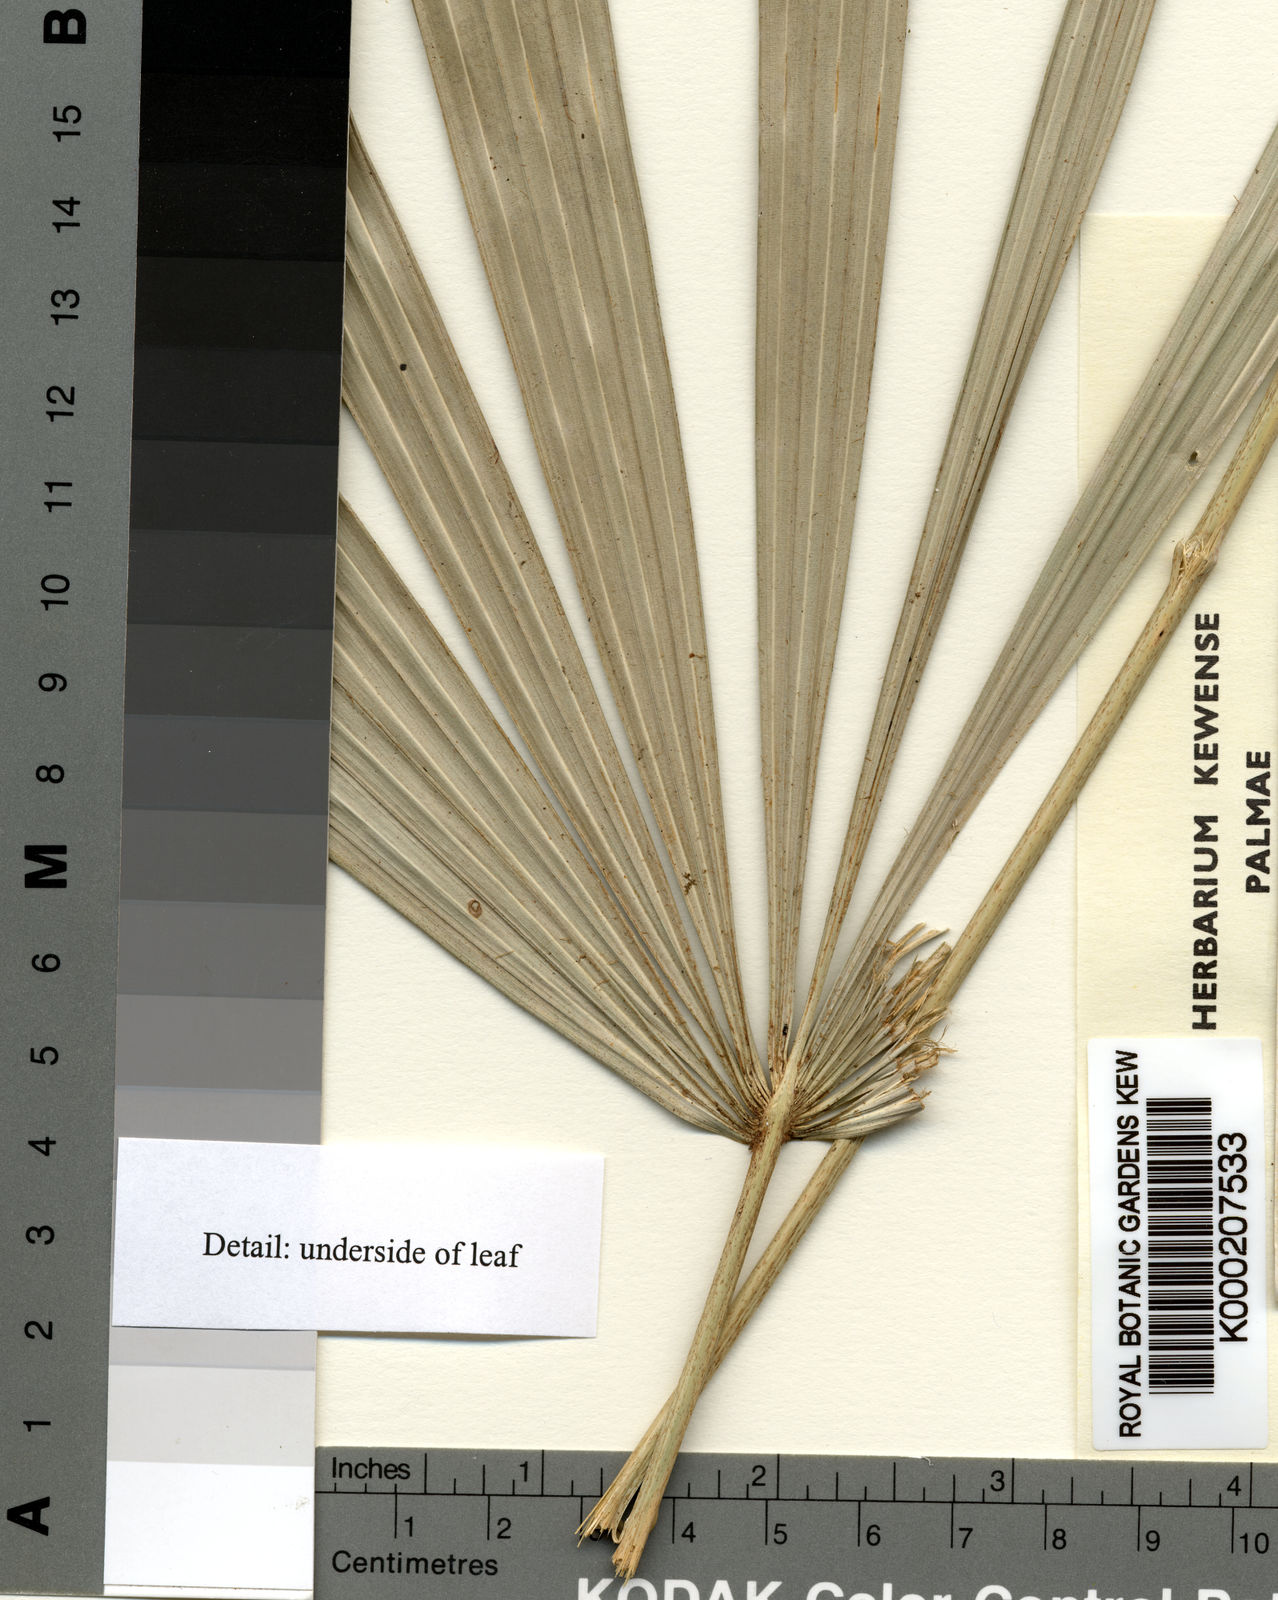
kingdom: Plantae
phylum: Tracheophyta
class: Liliopsida
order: Arecales
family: Arecaceae
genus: Licuala
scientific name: Licuala ridleyana
